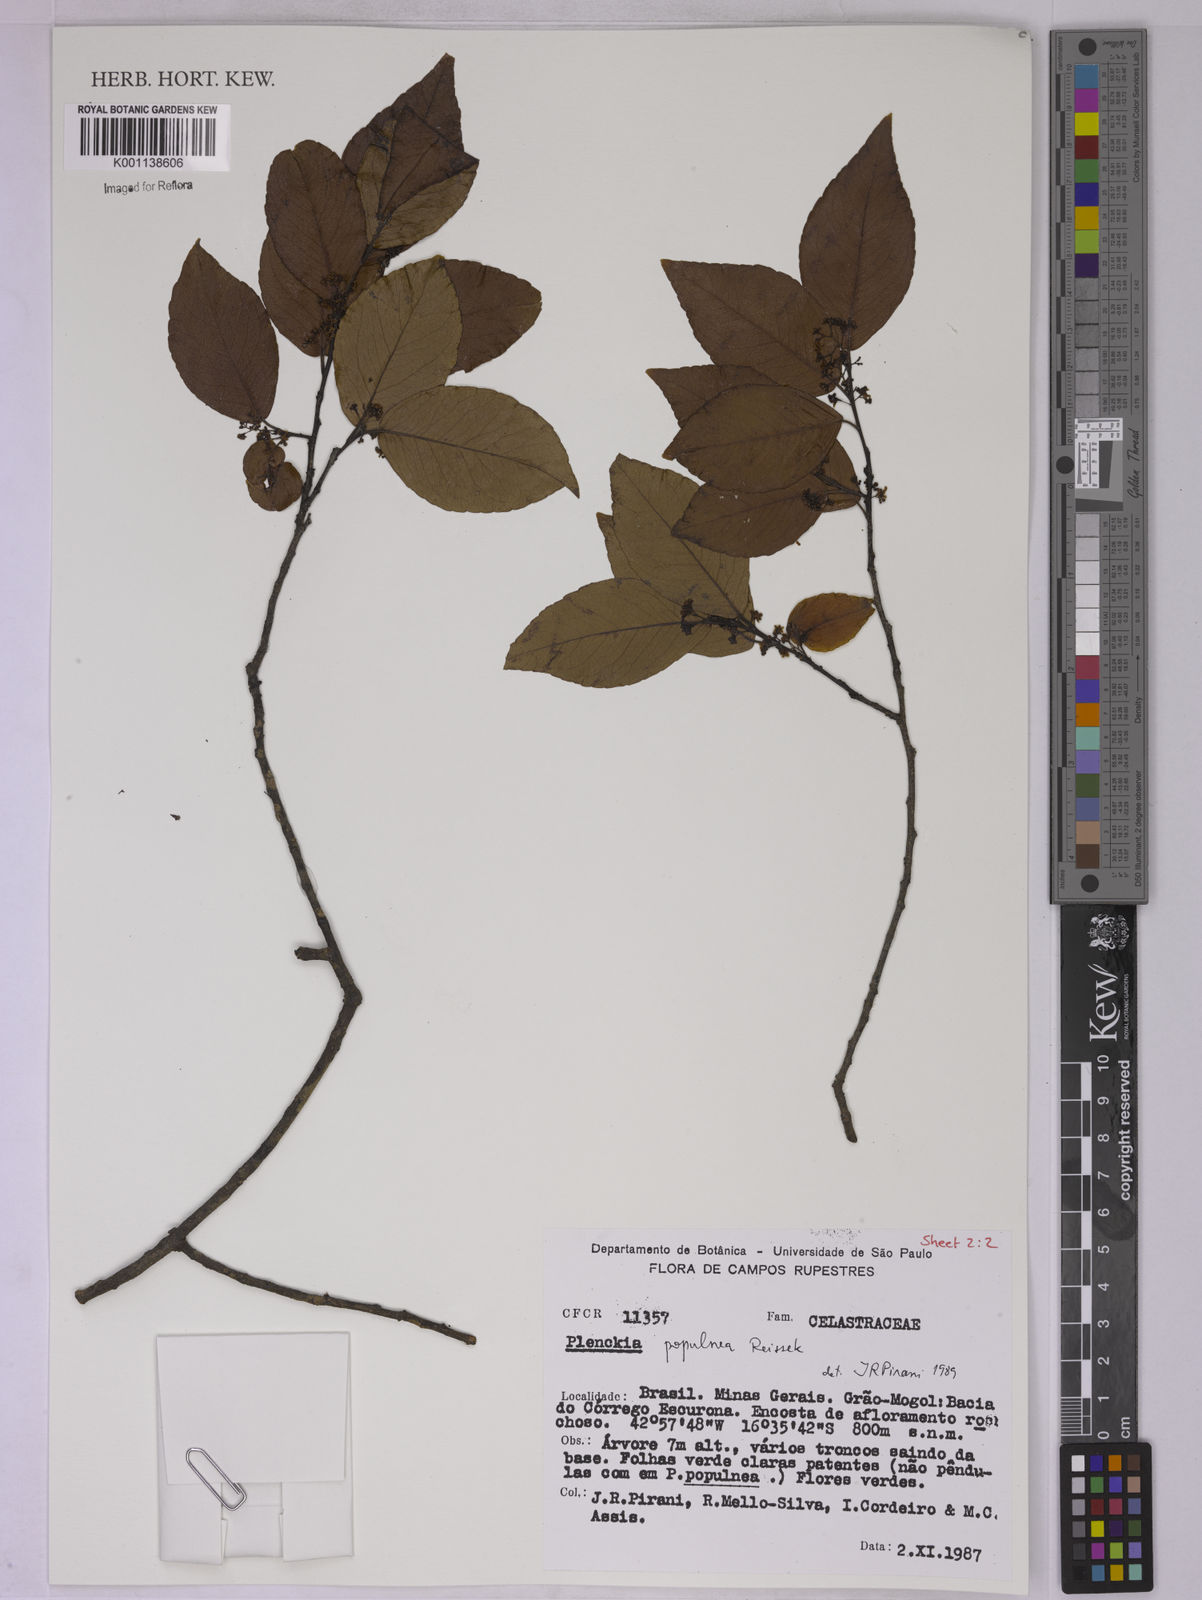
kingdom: Plantae
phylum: Tracheophyta
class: Magnoliopsida
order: Celastrales
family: Celastraceae
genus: Plenckia
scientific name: Plenckia populnea
